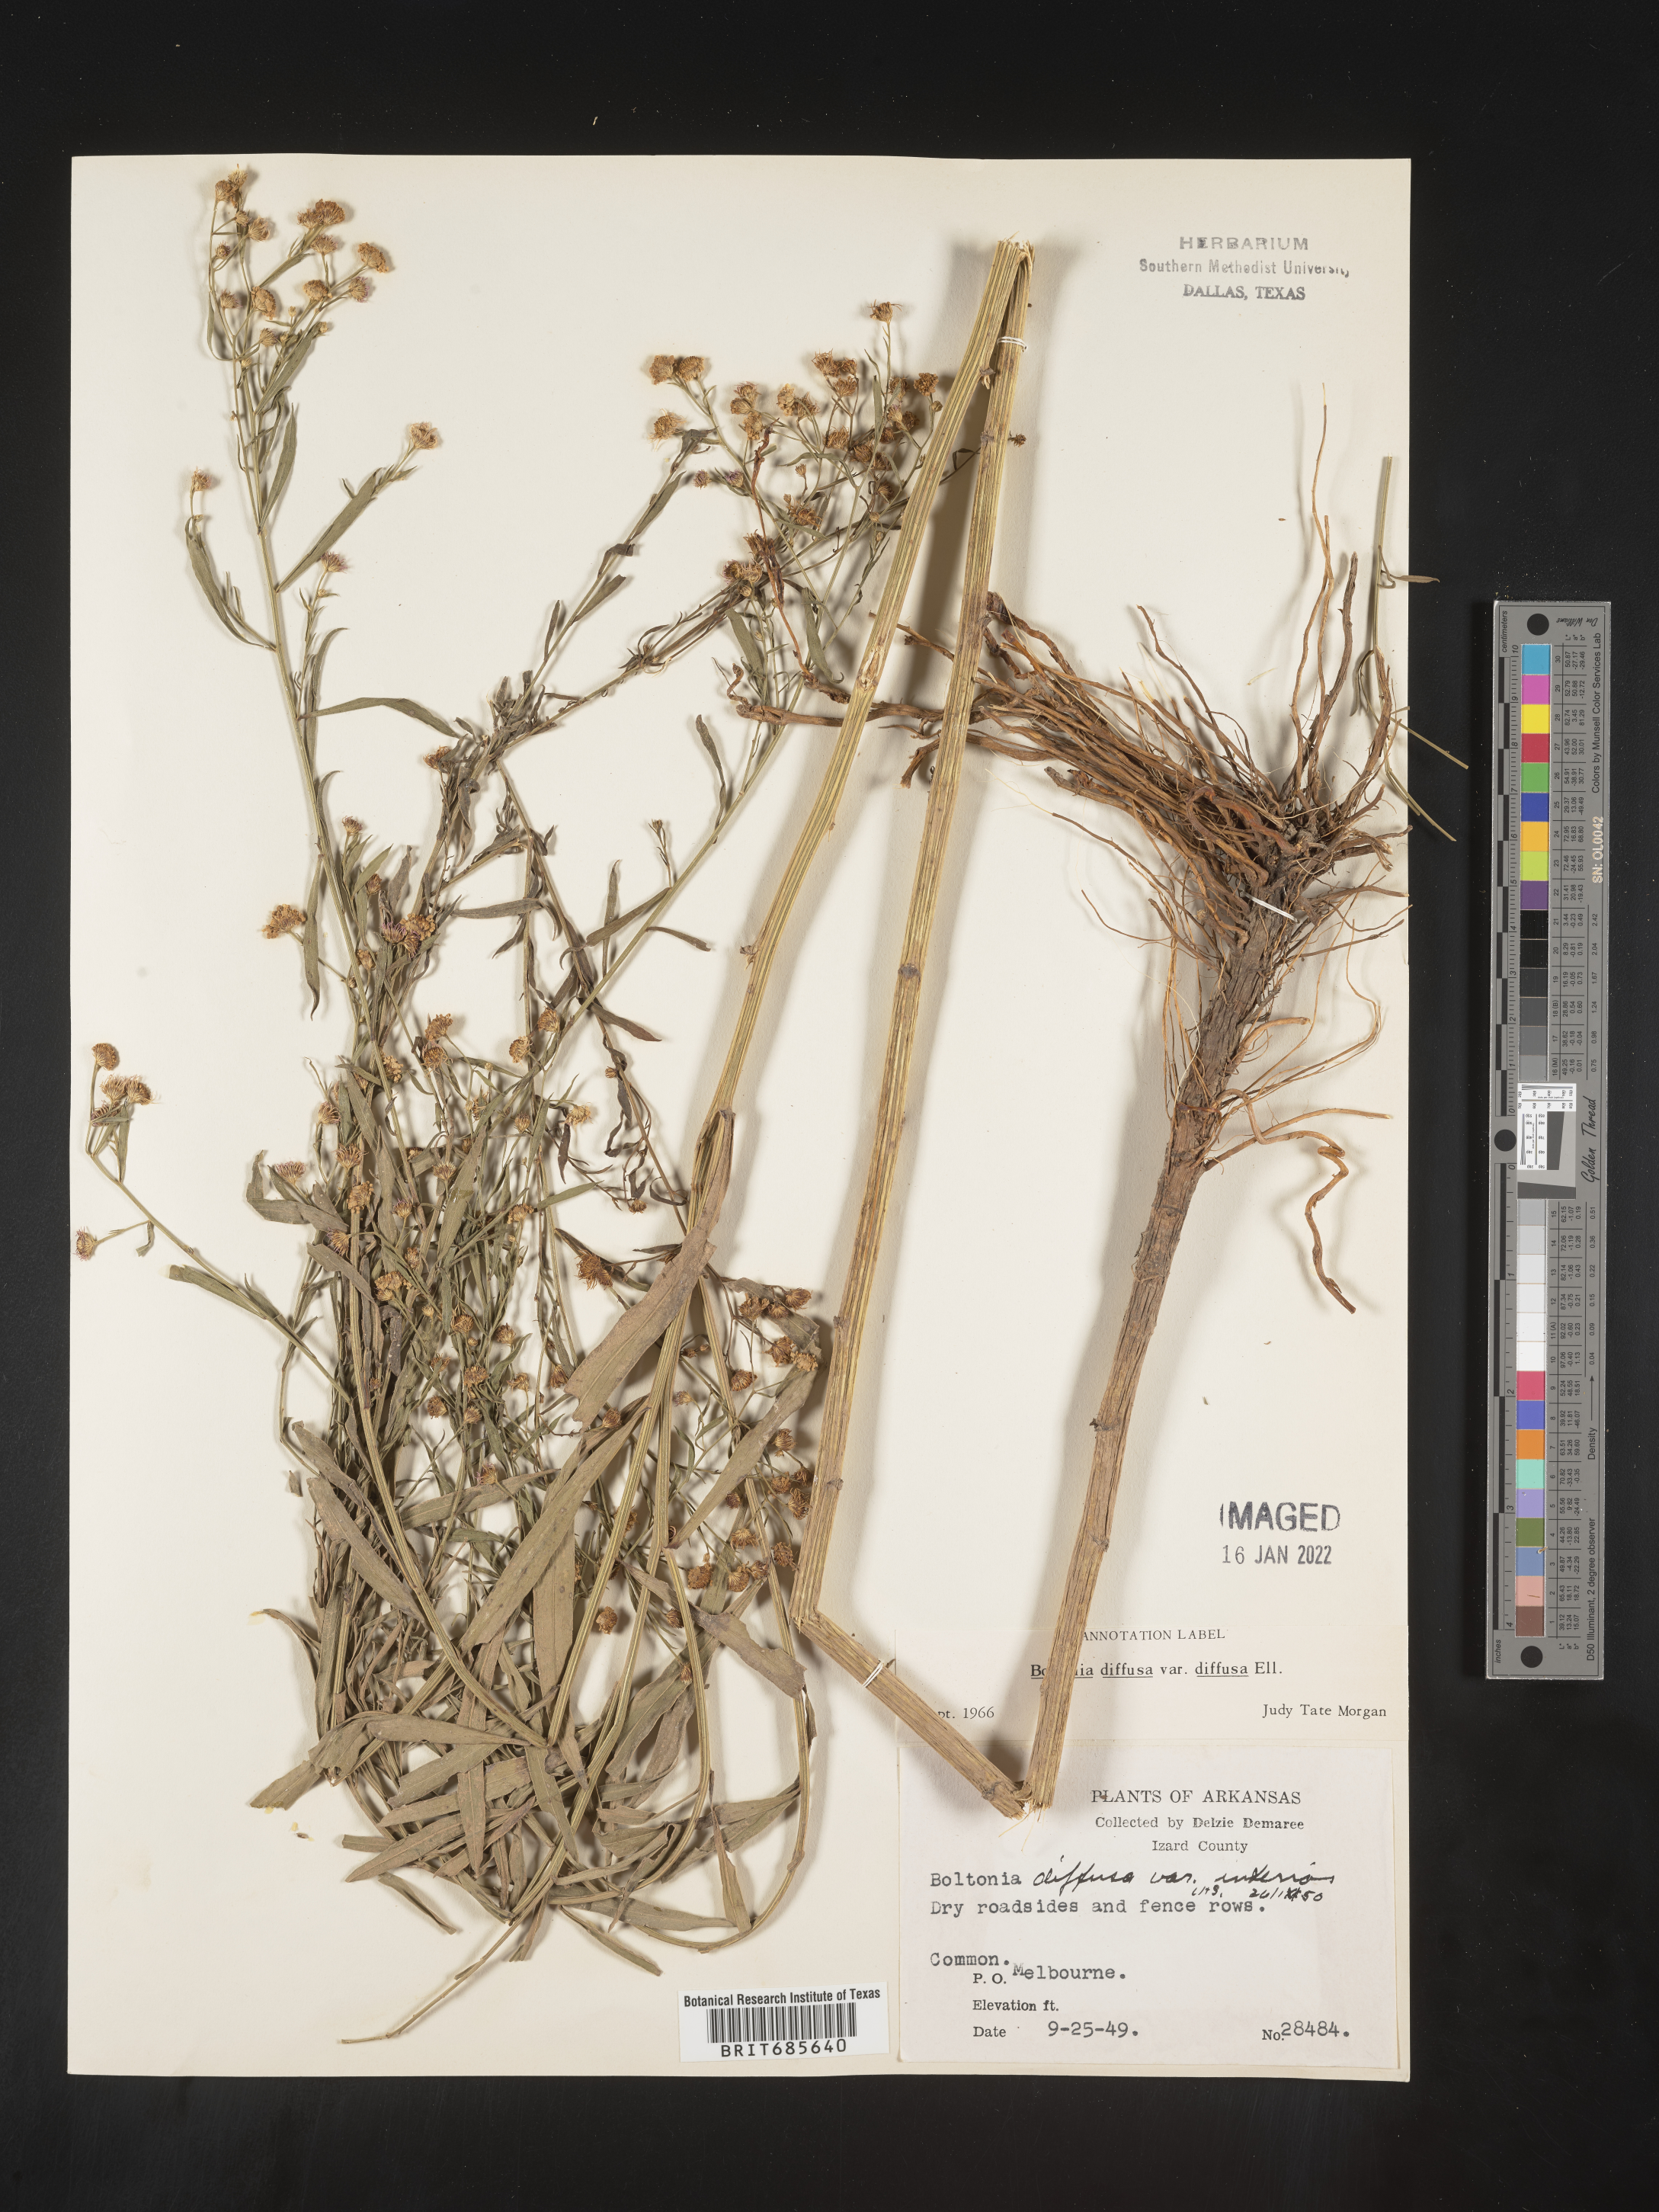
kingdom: Plantae
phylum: Tracheophyta
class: Magnoliopsida
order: Asterales
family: Asteraceae
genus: Boltonia
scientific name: Boltonia diffusa
